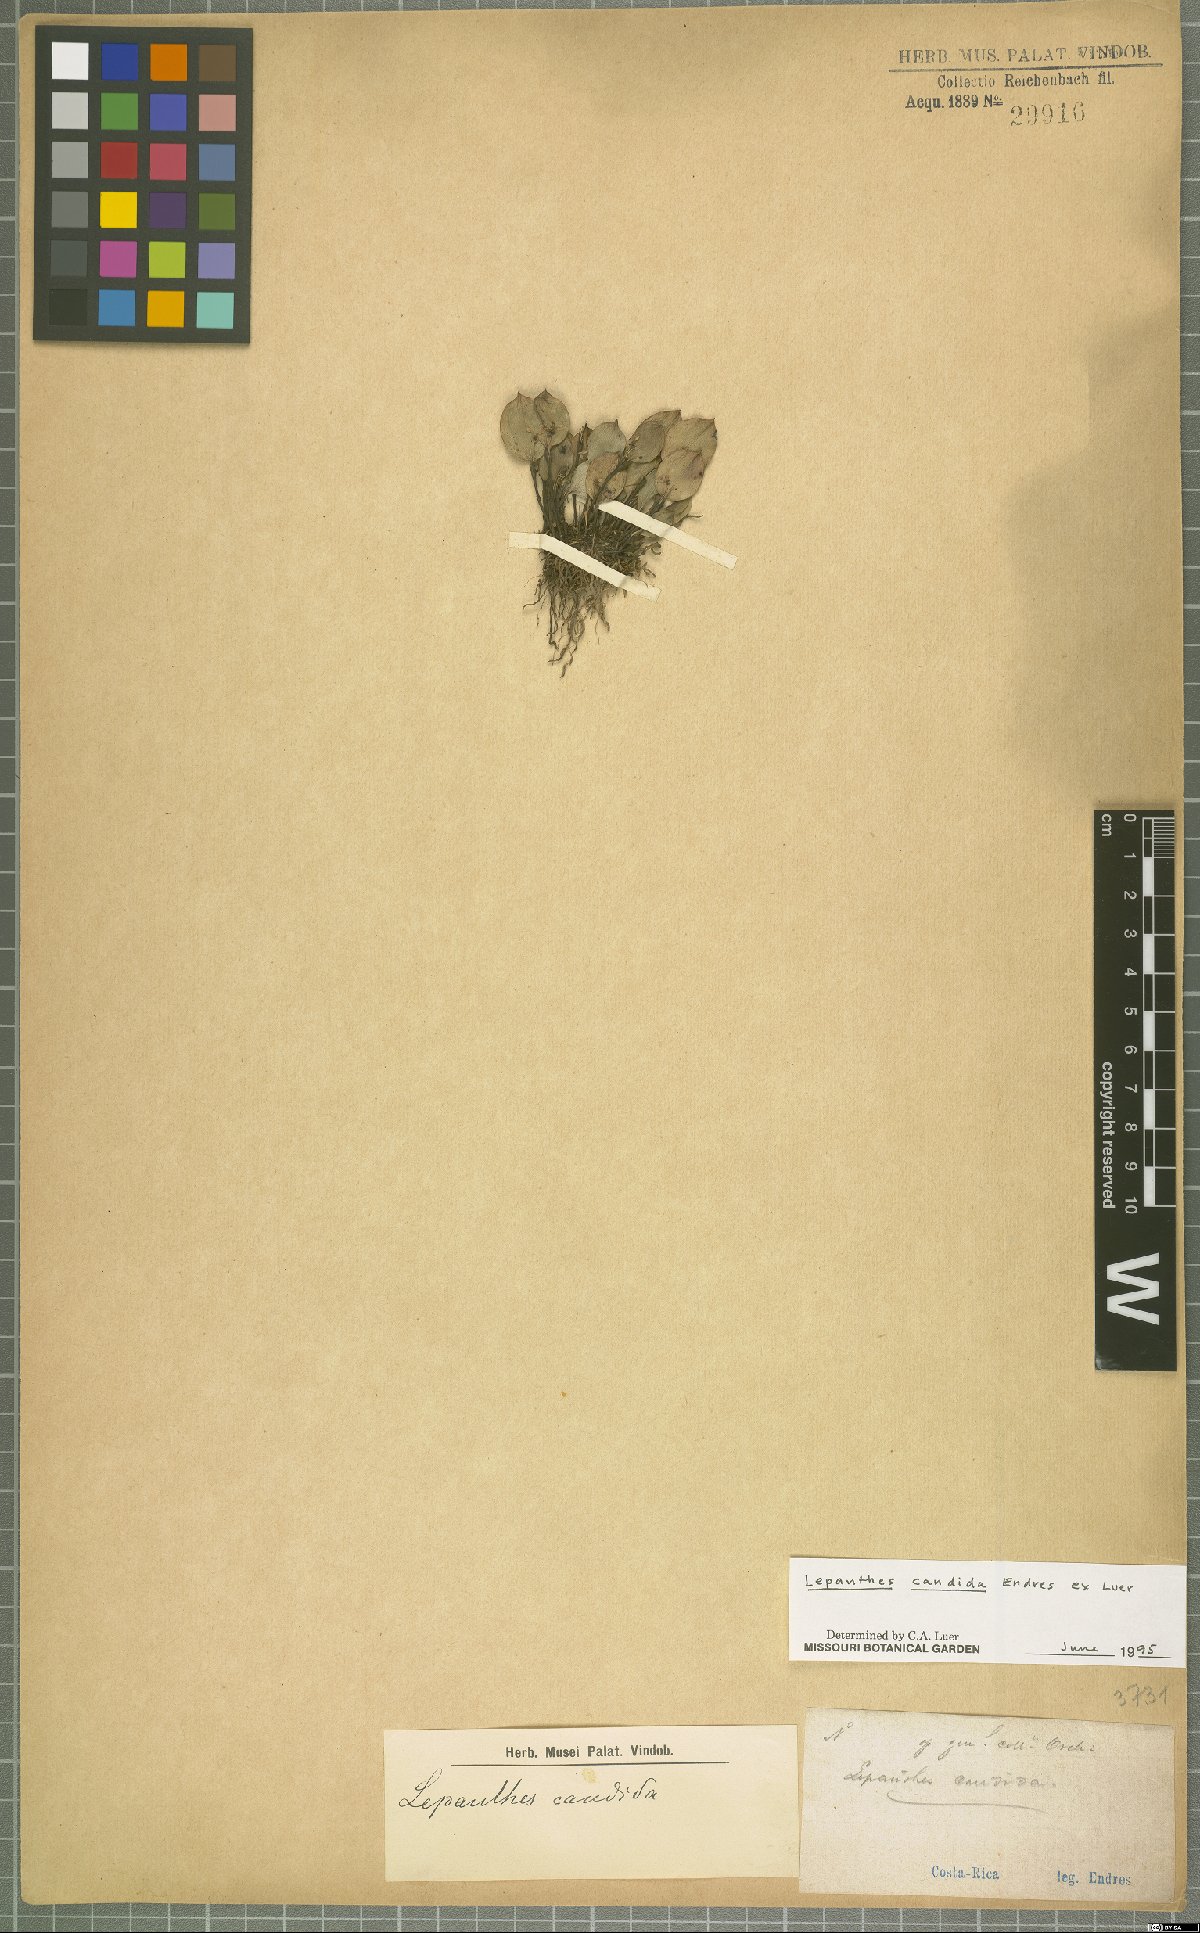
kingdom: Plantae
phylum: Tracheophyta
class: Liliopsida
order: Asparagales
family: Orchidaceae
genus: Lepanthes
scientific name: Lepanthes candida
